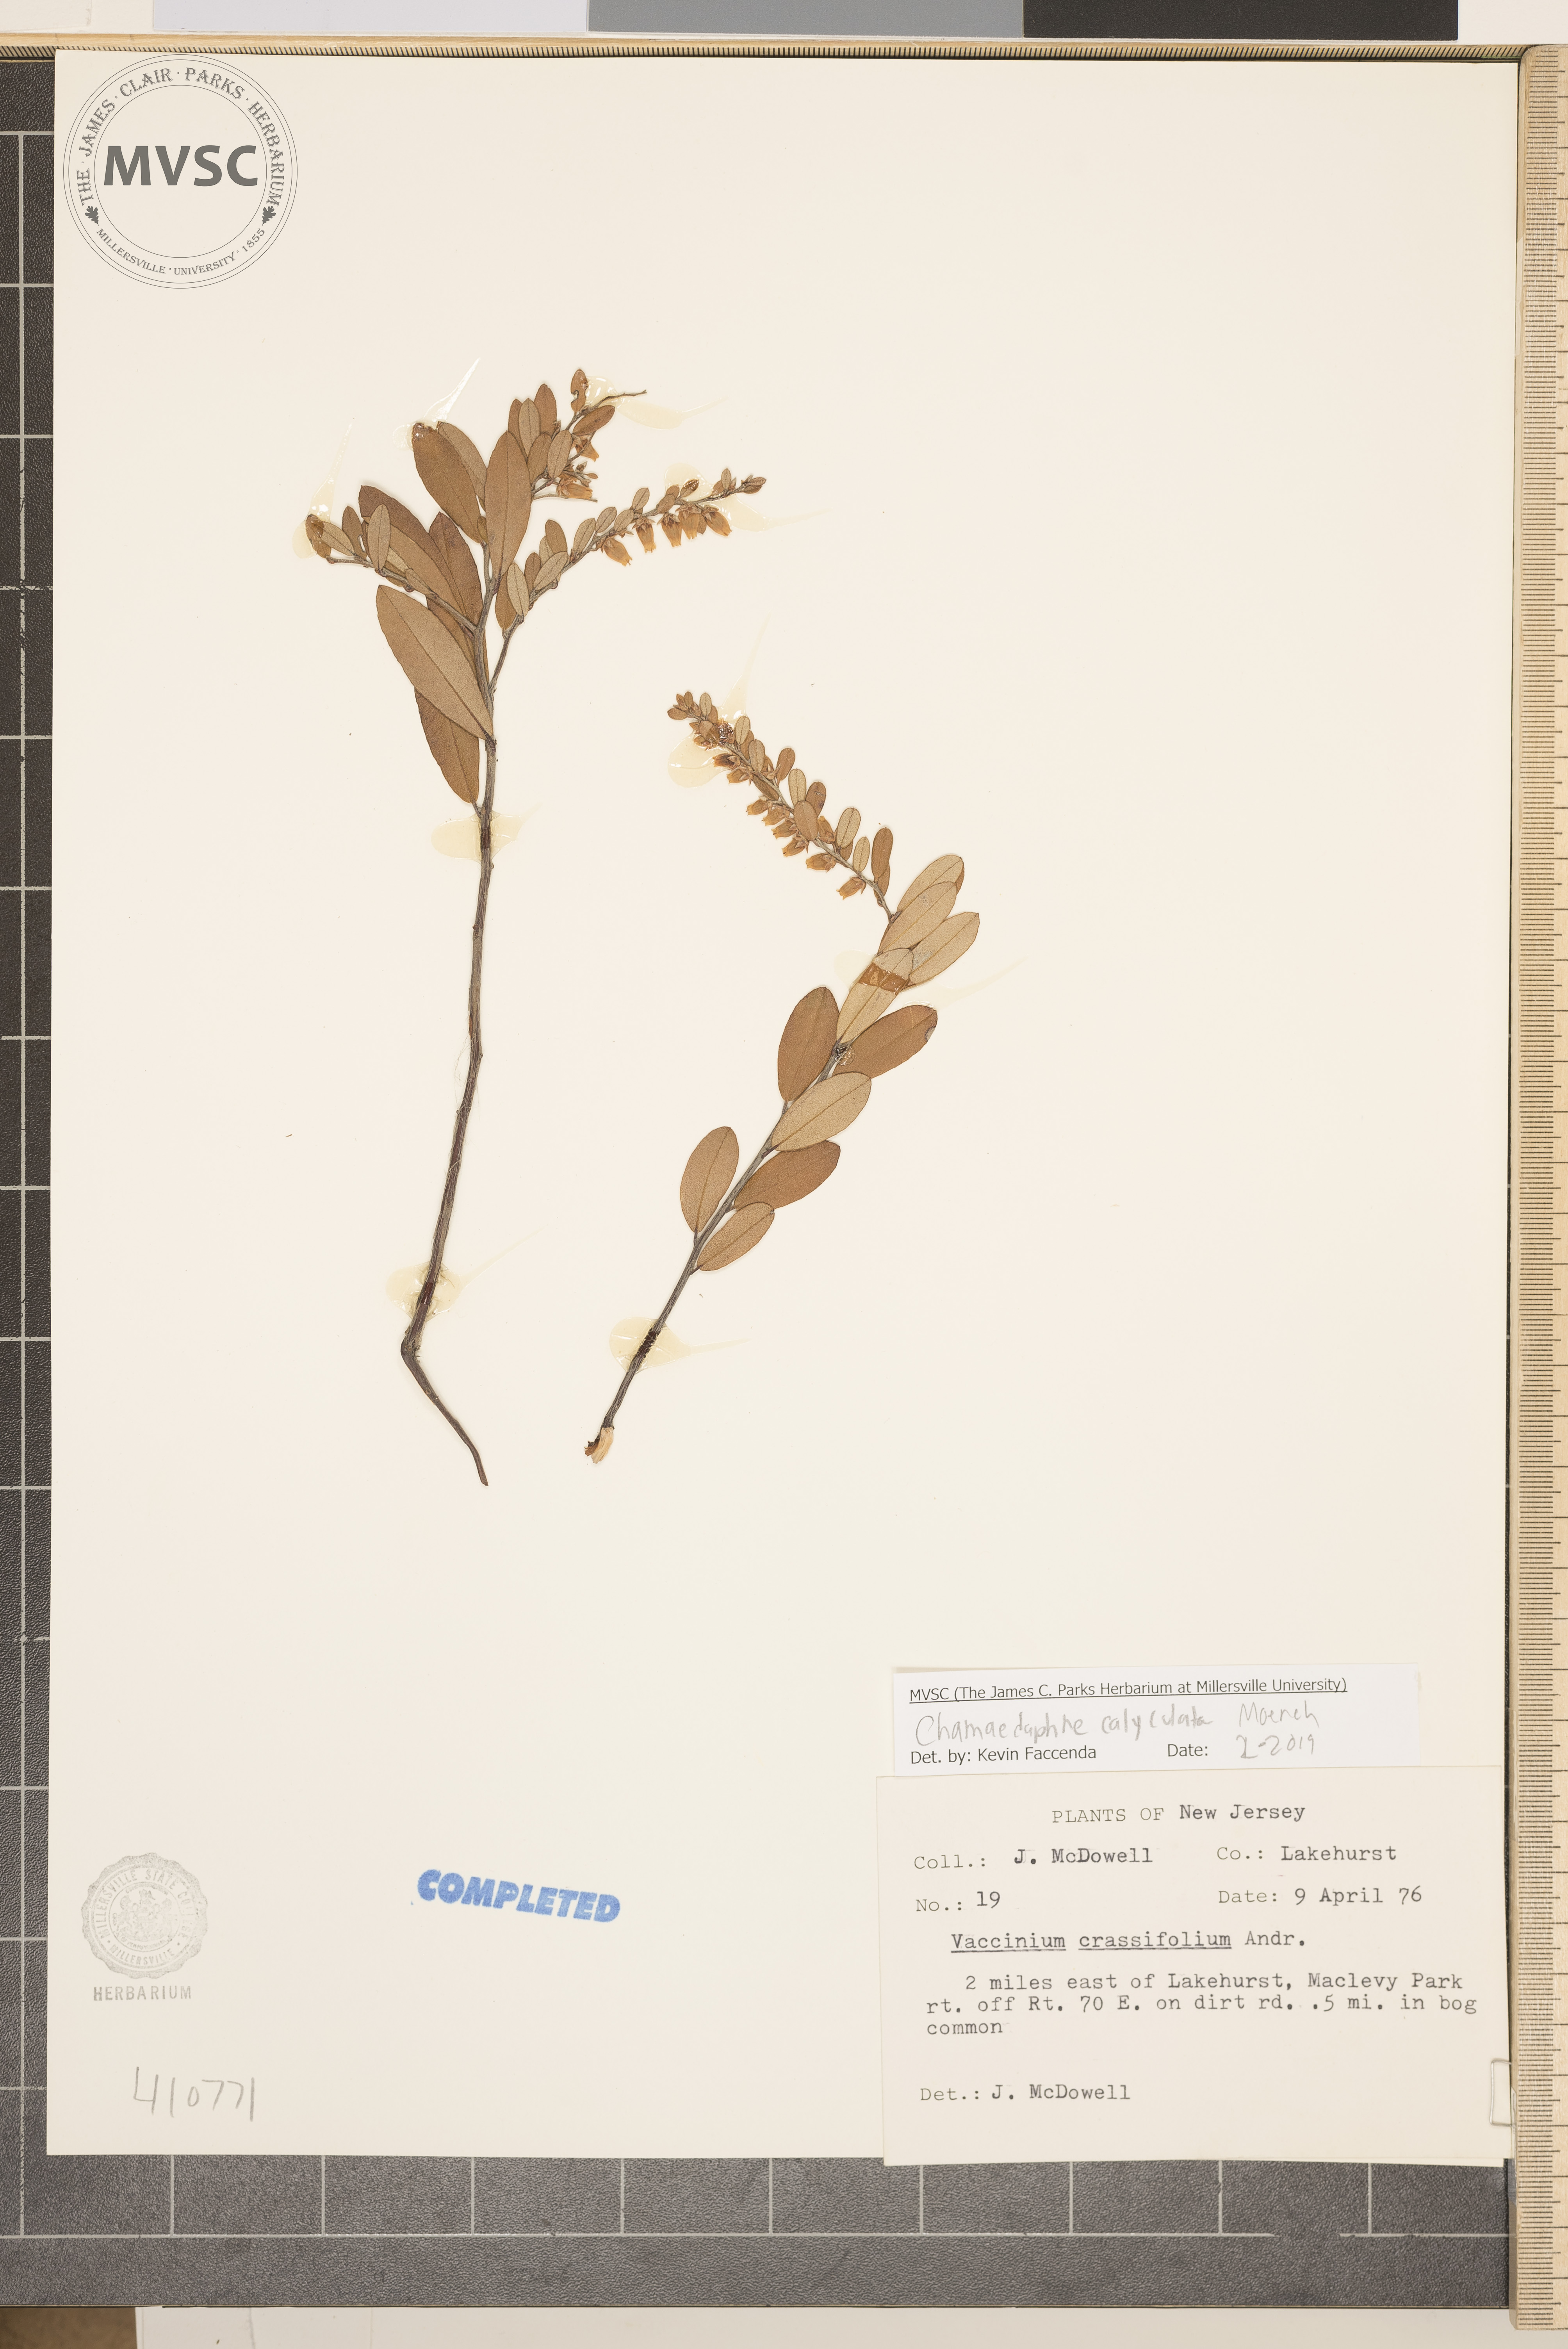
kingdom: Plantae
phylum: Tracheophyta
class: Magnoliopsida
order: Ericales
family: Ericaceae
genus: Chamaedaphne
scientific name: Chamaedaphne calyculata
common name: Leatherleaf
